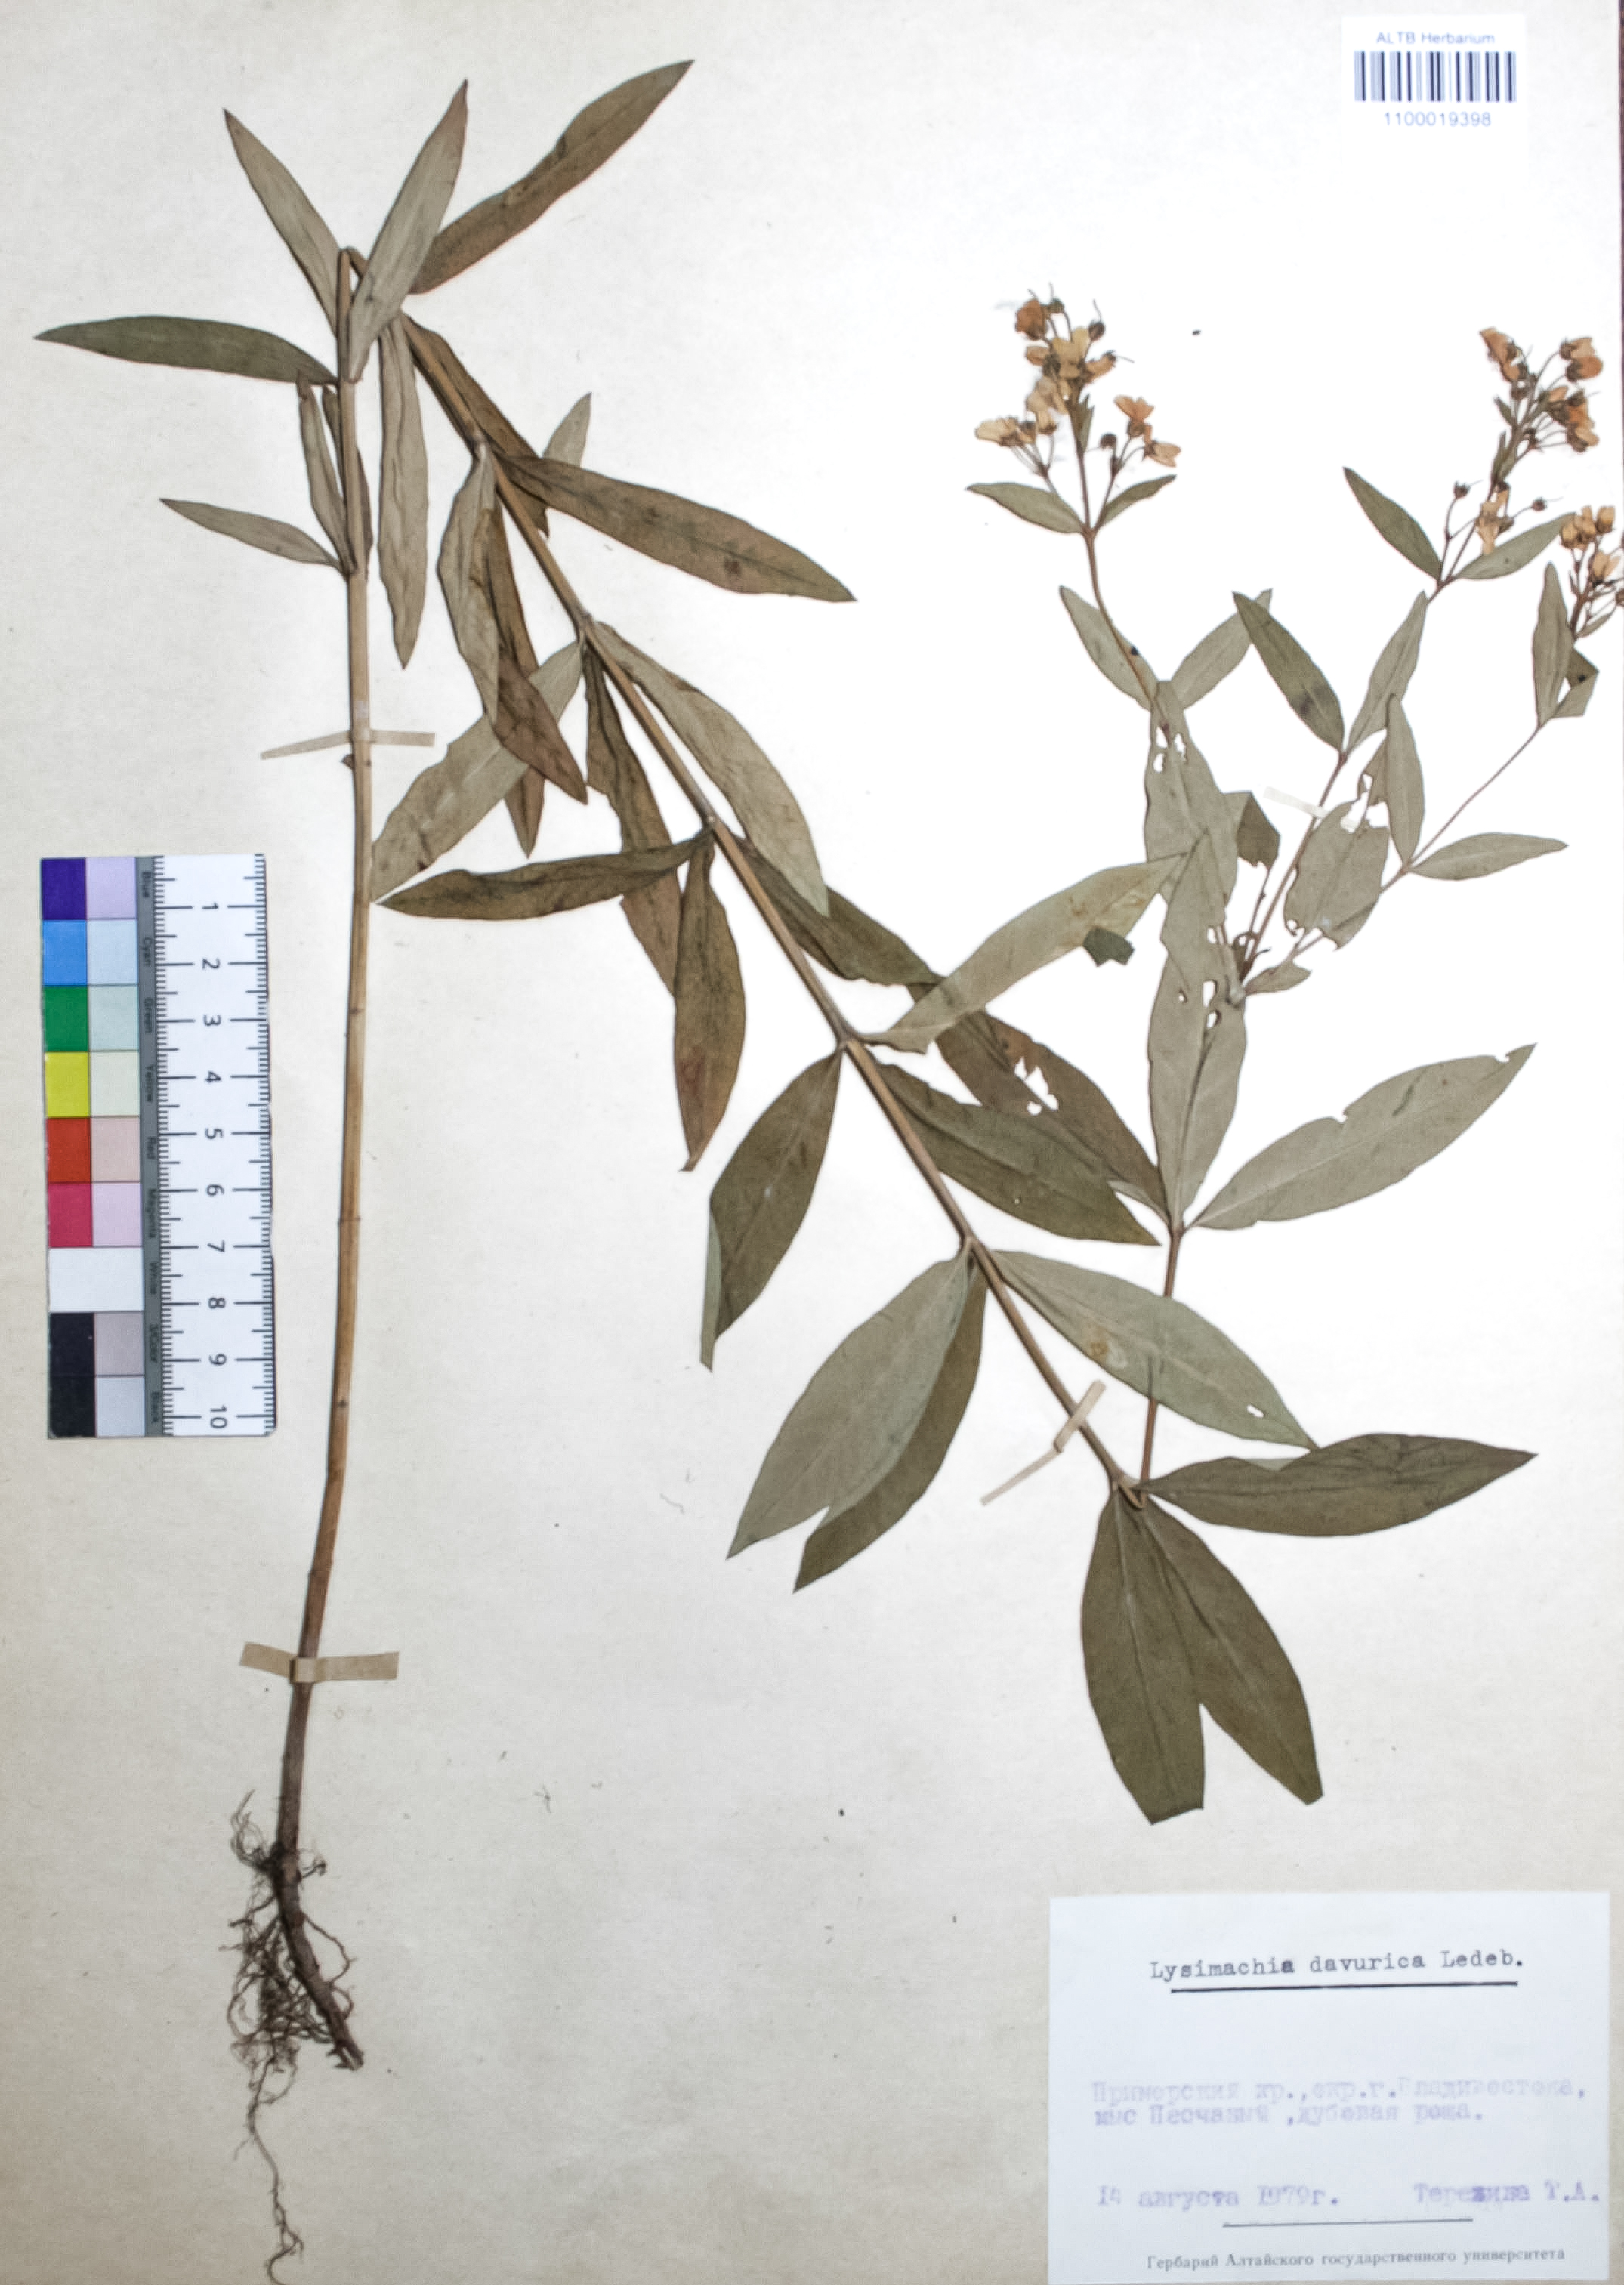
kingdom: Plantae
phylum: Tracheophyta
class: Magnoliopsida
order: Ericales
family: Primulaceae
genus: Lysimachia
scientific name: Lysimachia davurica
